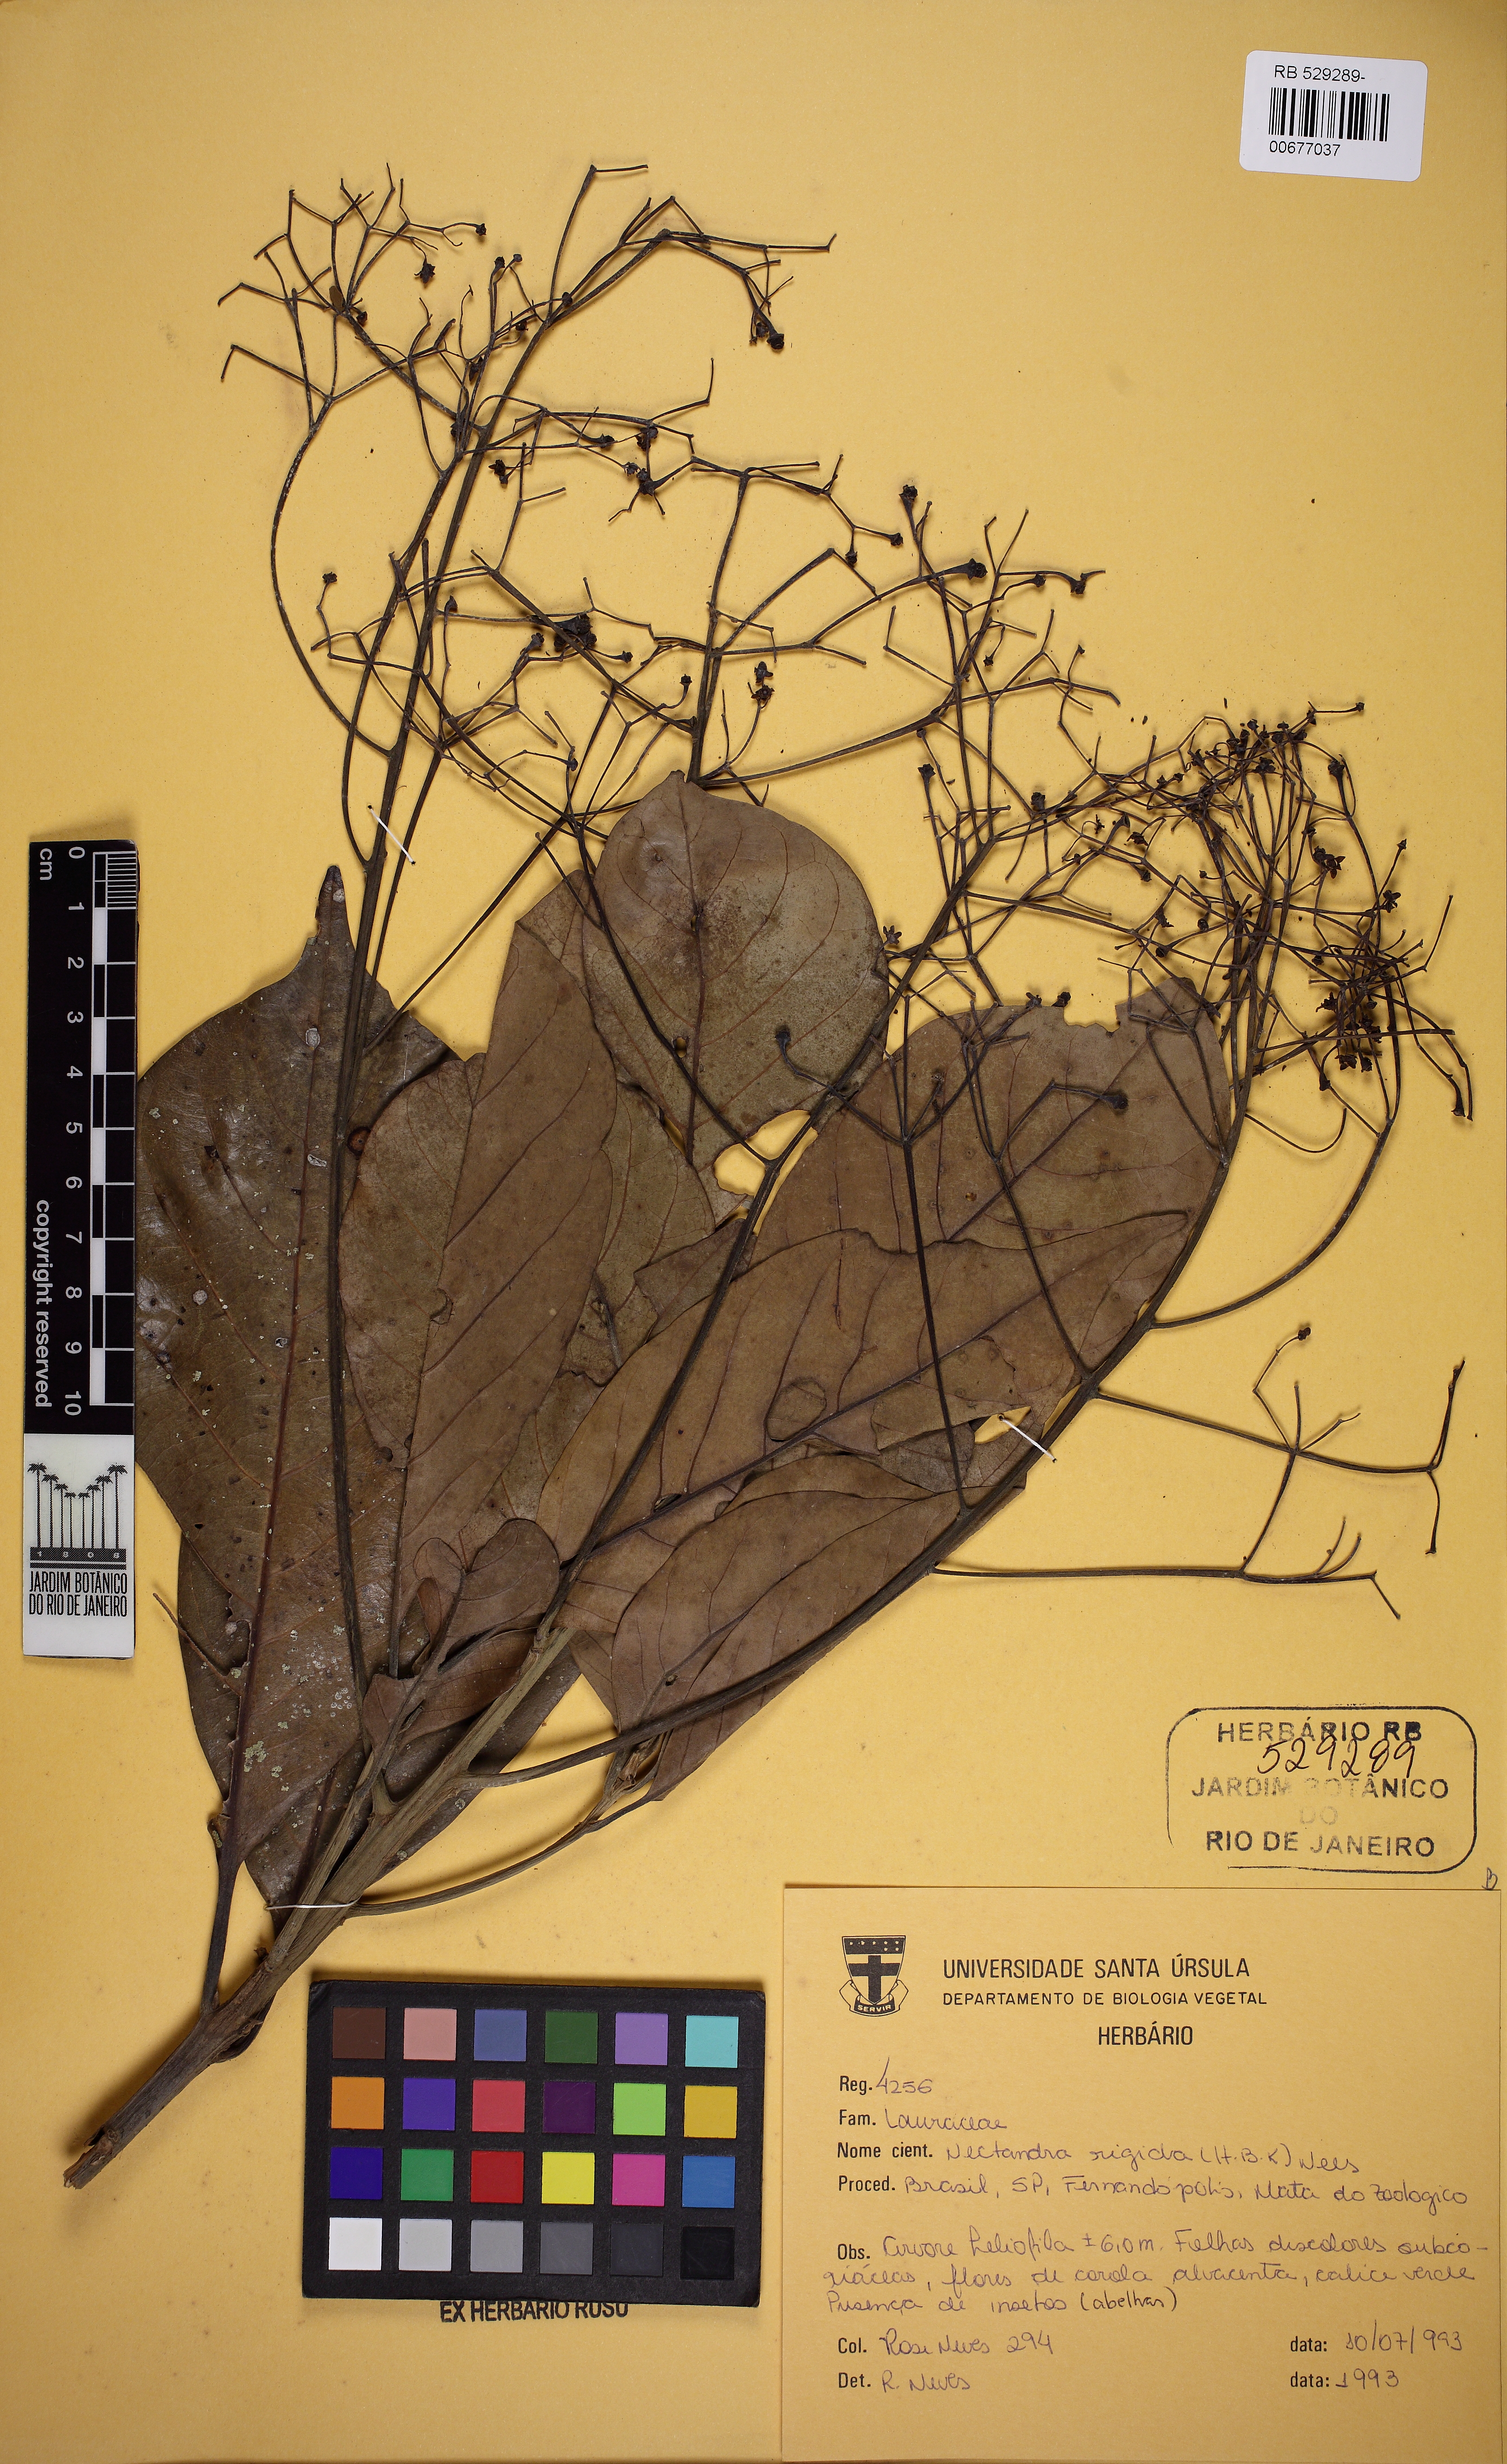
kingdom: Plantae
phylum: Tracheophyta
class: Magnoliopsida
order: Laurales
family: Lauraceae
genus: Nectandra
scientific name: Nectandra oppositifolia
